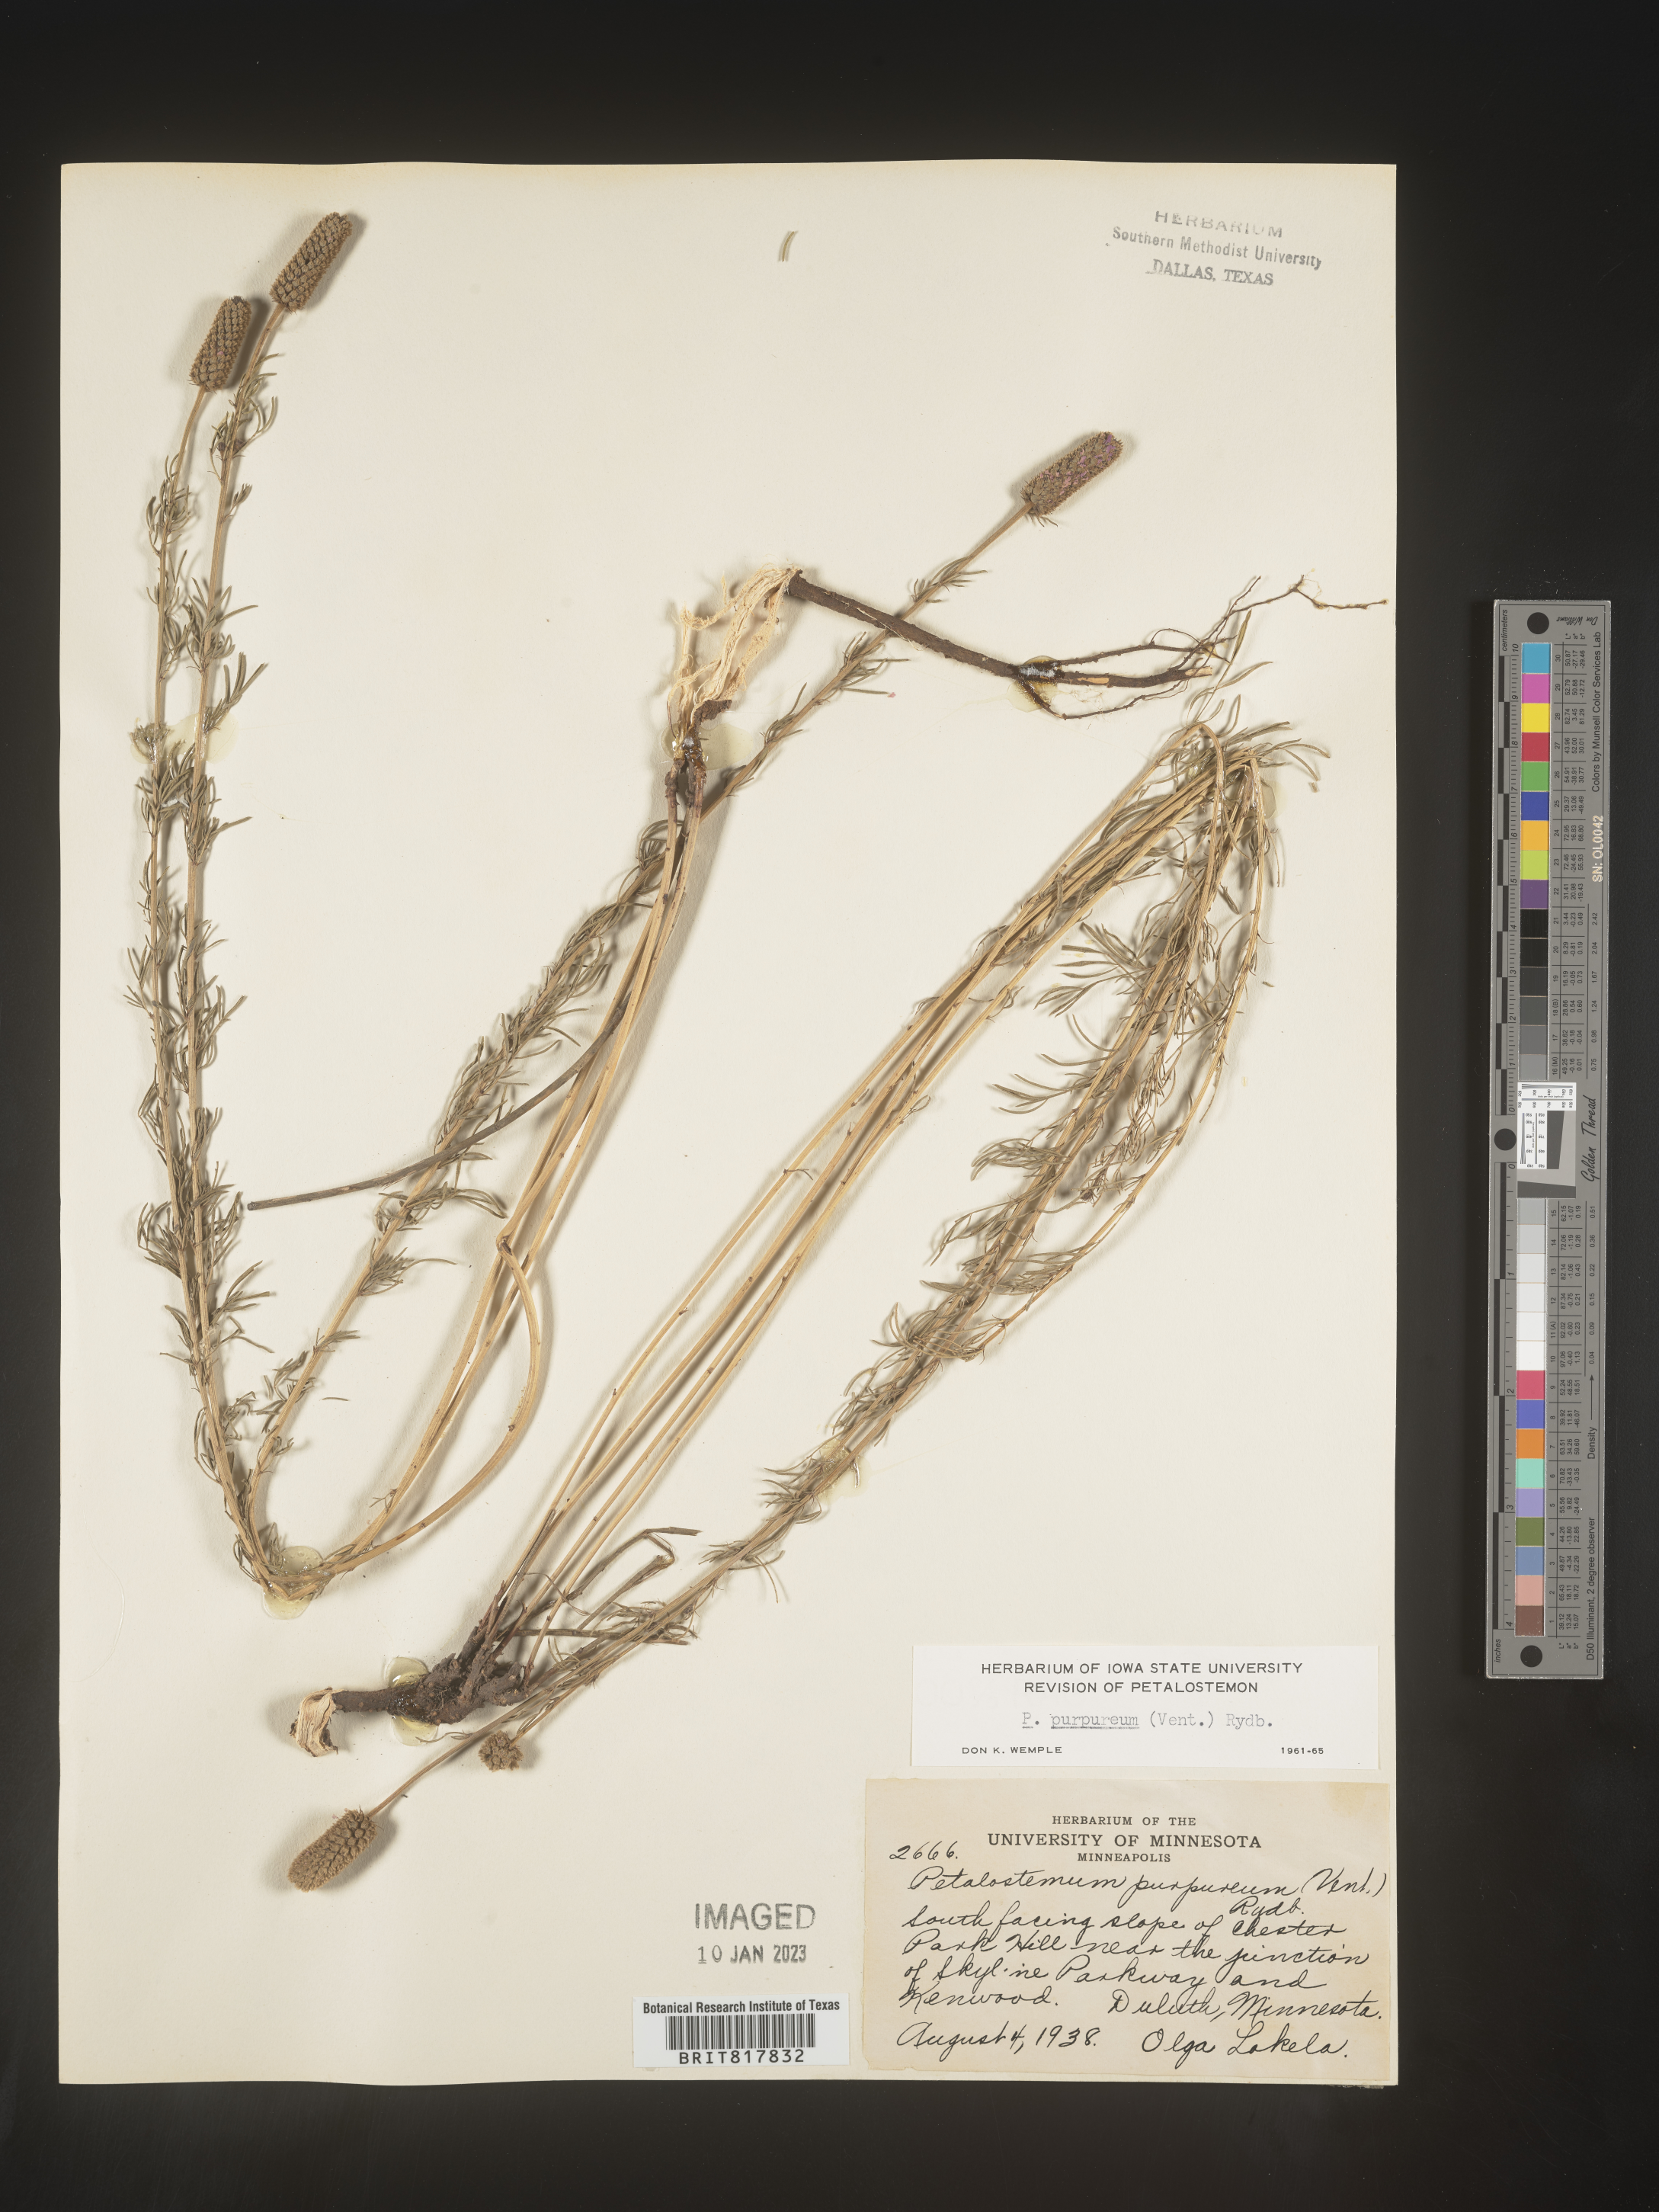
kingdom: Plantae
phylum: Tracheophyta
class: Magnoliopsida
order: Fabales
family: Fabaceae
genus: Dalea
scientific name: Dalea purpurea
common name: Purple prairie-clover
